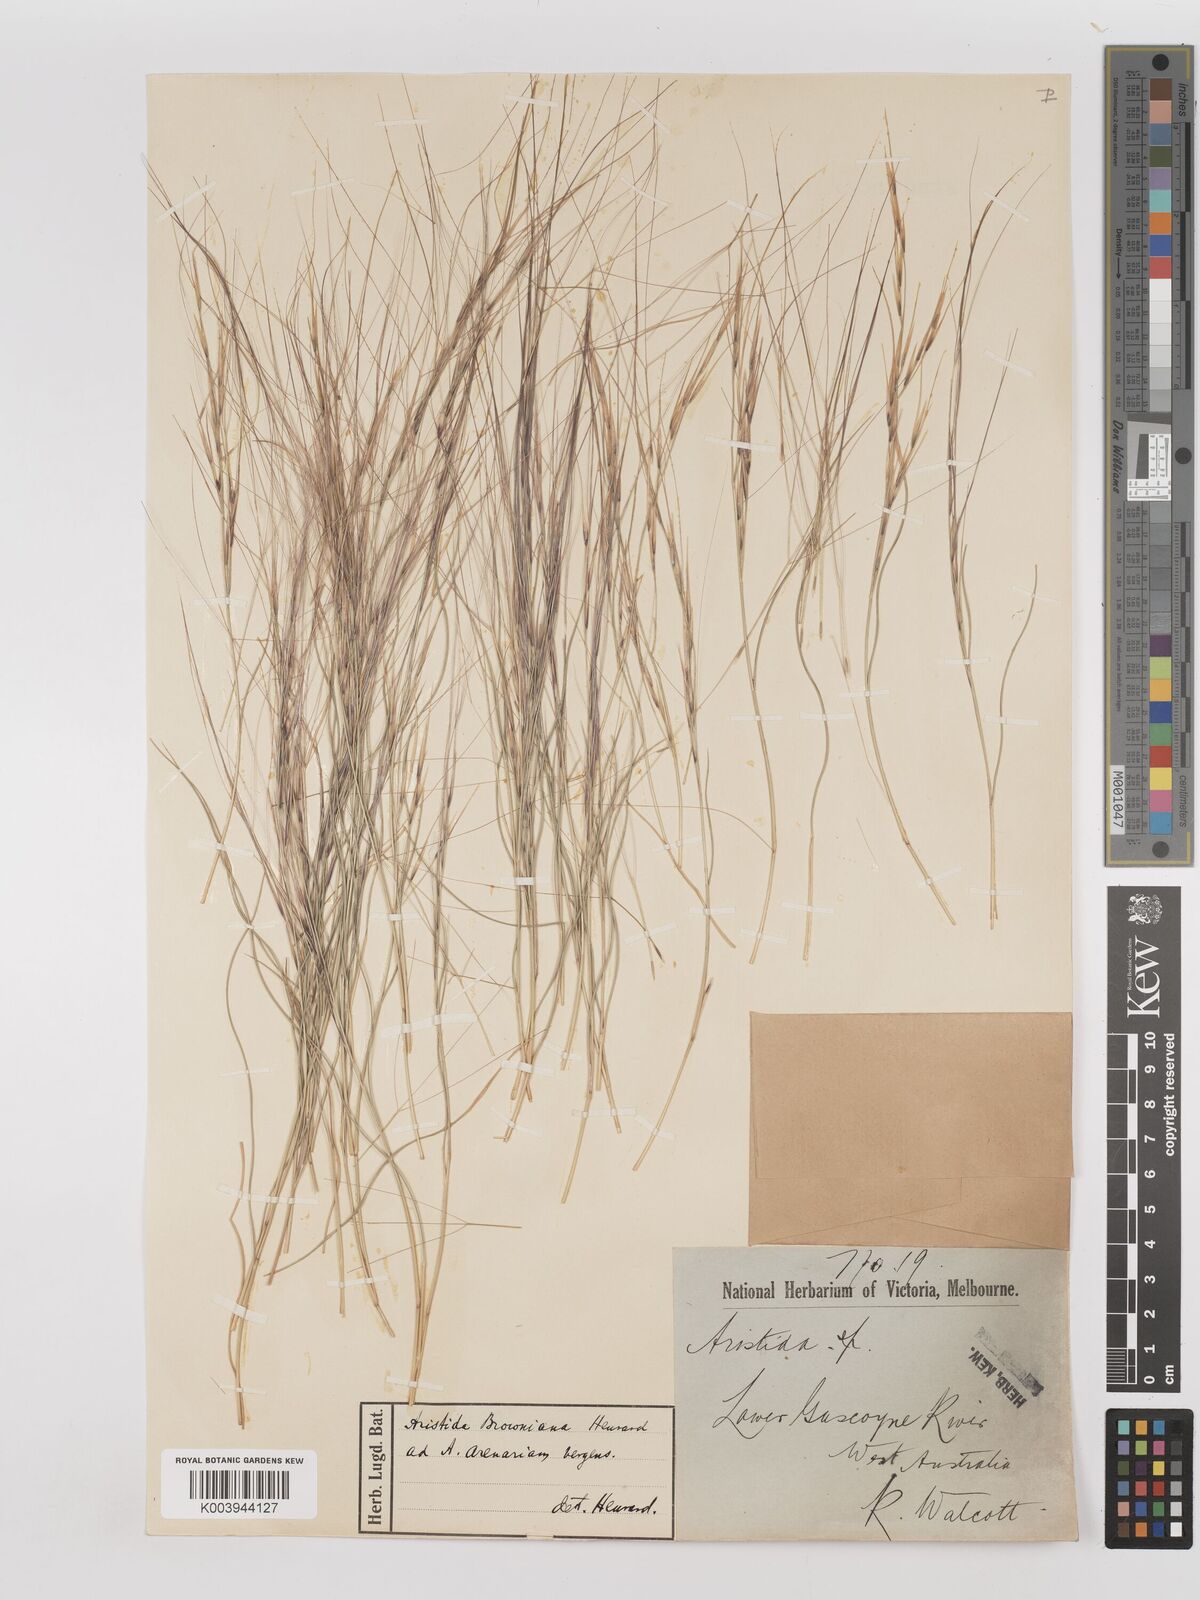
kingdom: Plantae
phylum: Tracheophyta
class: Liliopsida
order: Poales
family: Poaceae
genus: Aristida
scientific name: Aristida holathera
